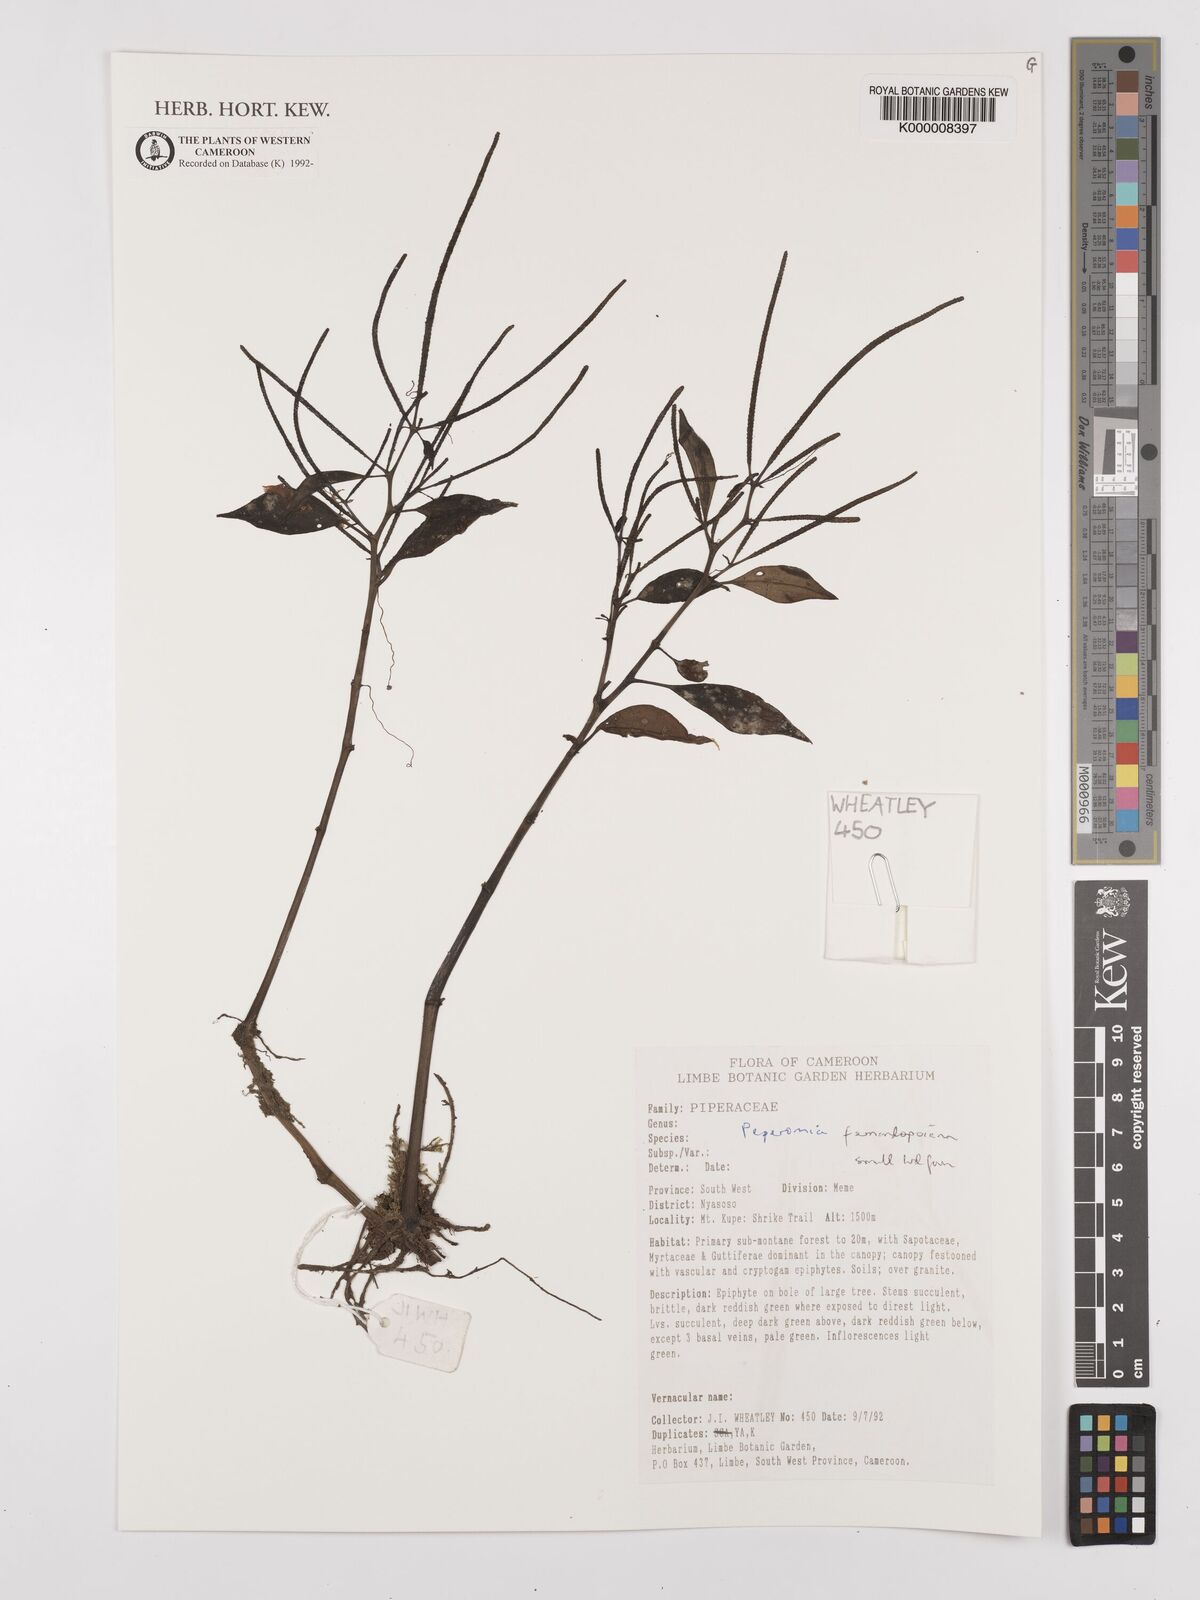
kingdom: Plantae
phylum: Tracheophyta
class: Magnoliopsida
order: Piperales
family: Piperaceae
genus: Peperomia
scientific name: Peperomia fernandopoiana
